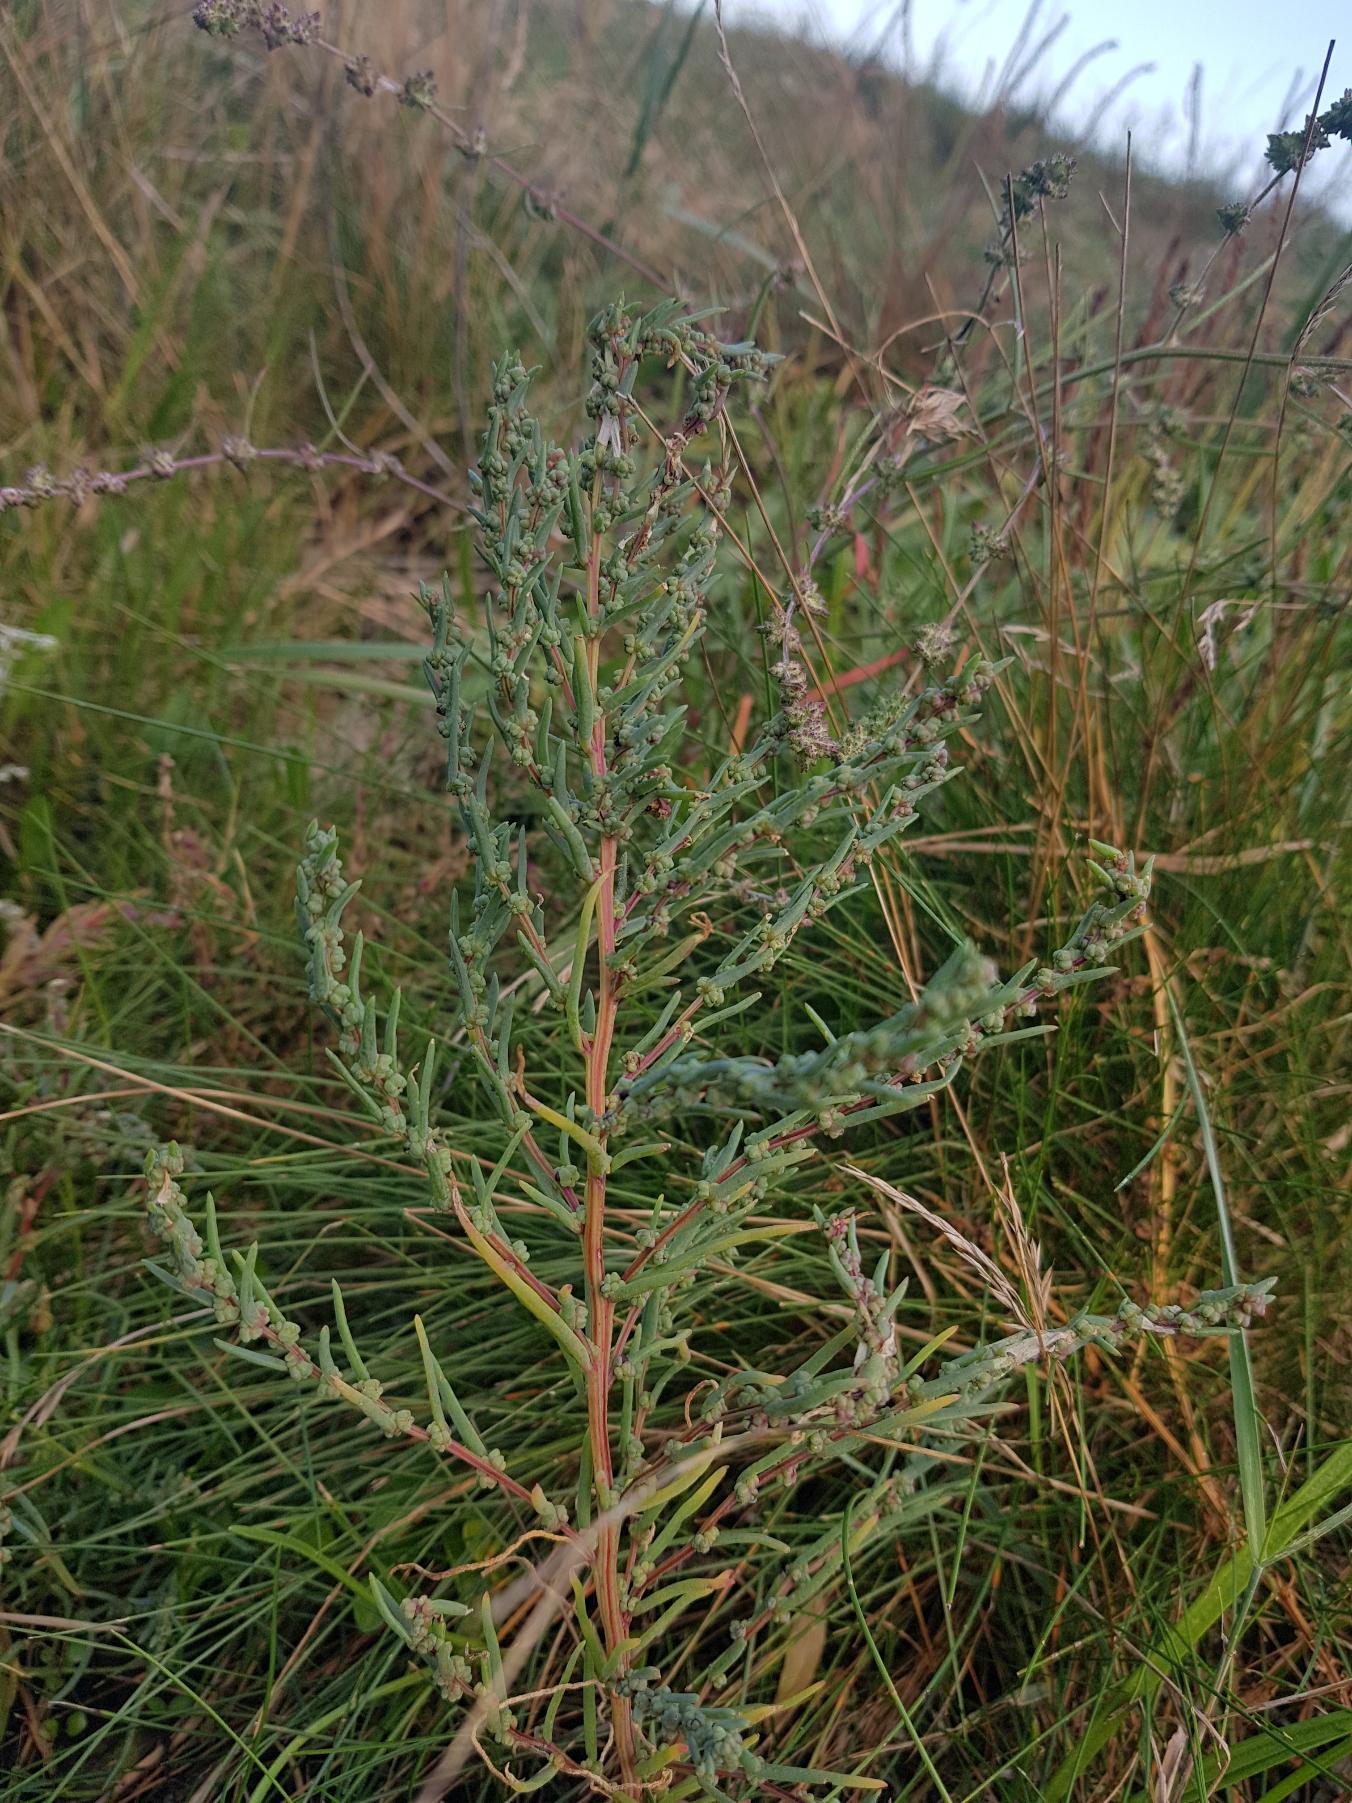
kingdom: Plantae
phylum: Tracheophyta
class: Magnoliopsida
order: Caryophyllales
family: Amaranthaceae
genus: Suaeda
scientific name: Suaeda maritima
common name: Strandgåsefod
